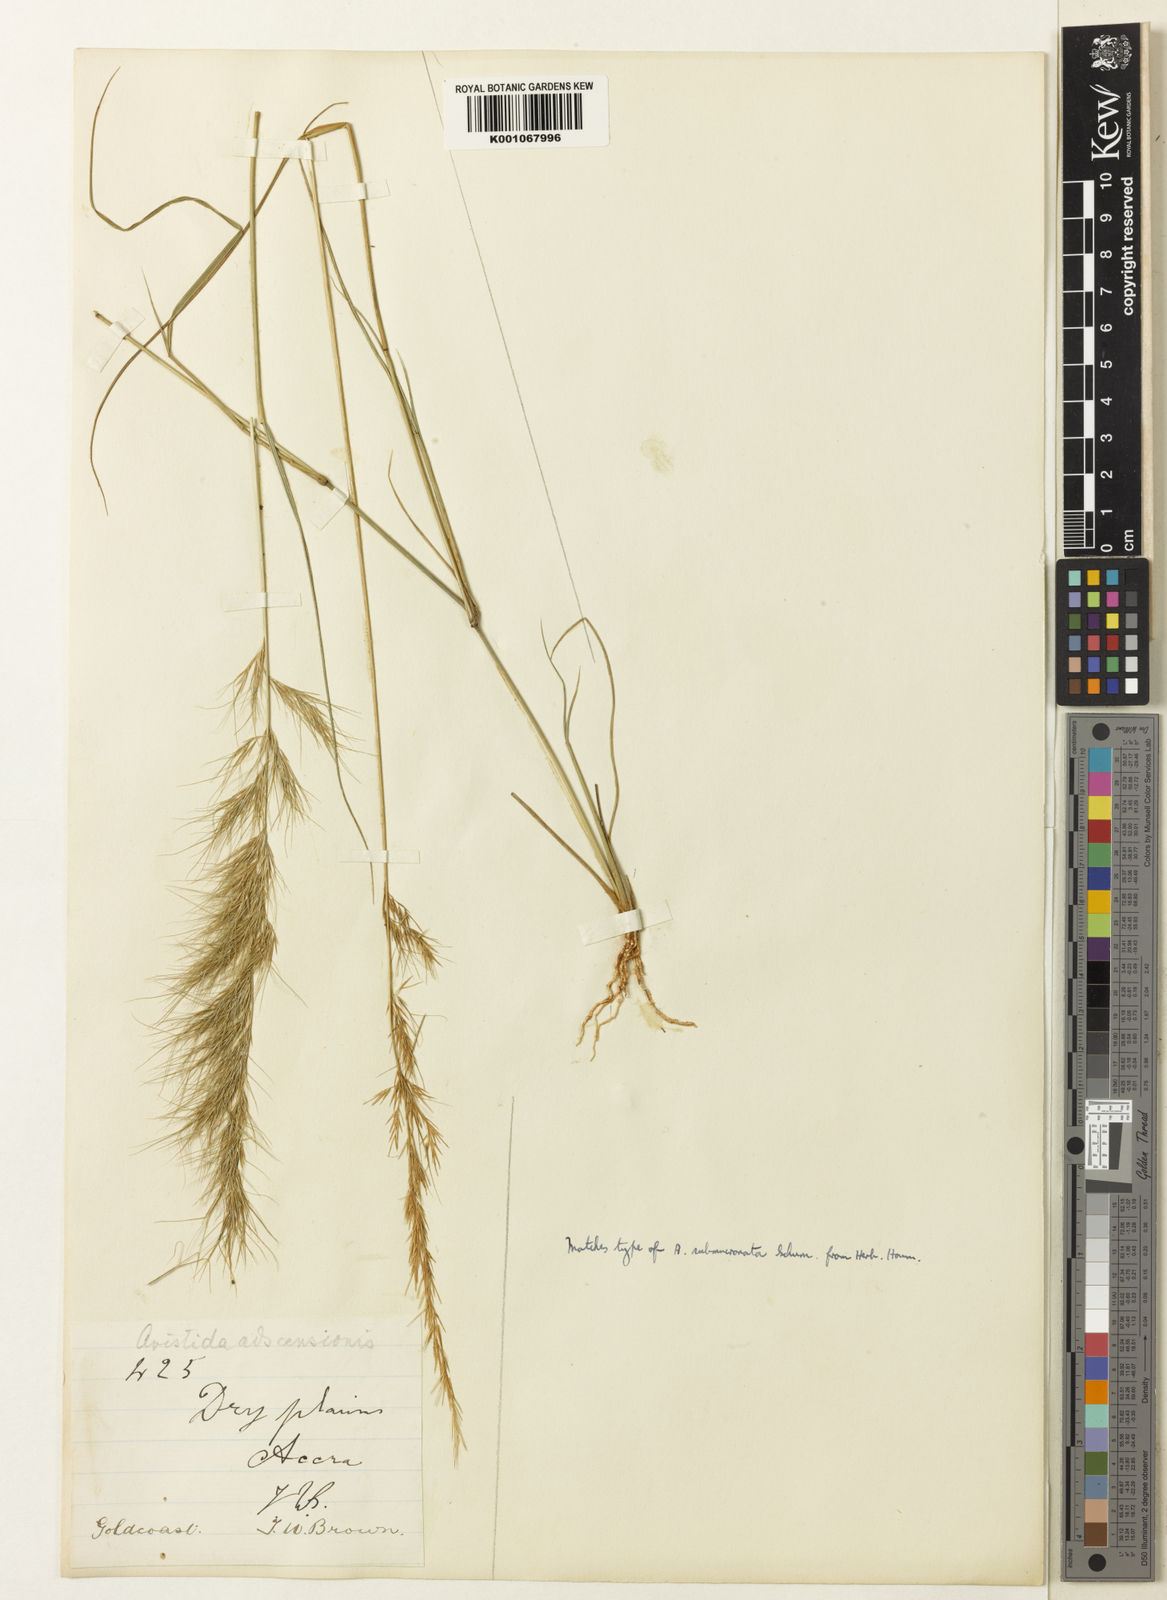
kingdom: Plantae
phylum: Tracheophyta
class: Liliopsida
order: Poales
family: Poaceae
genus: Aristida
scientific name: Aristida adscensionis
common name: Sixweeks threeawn
